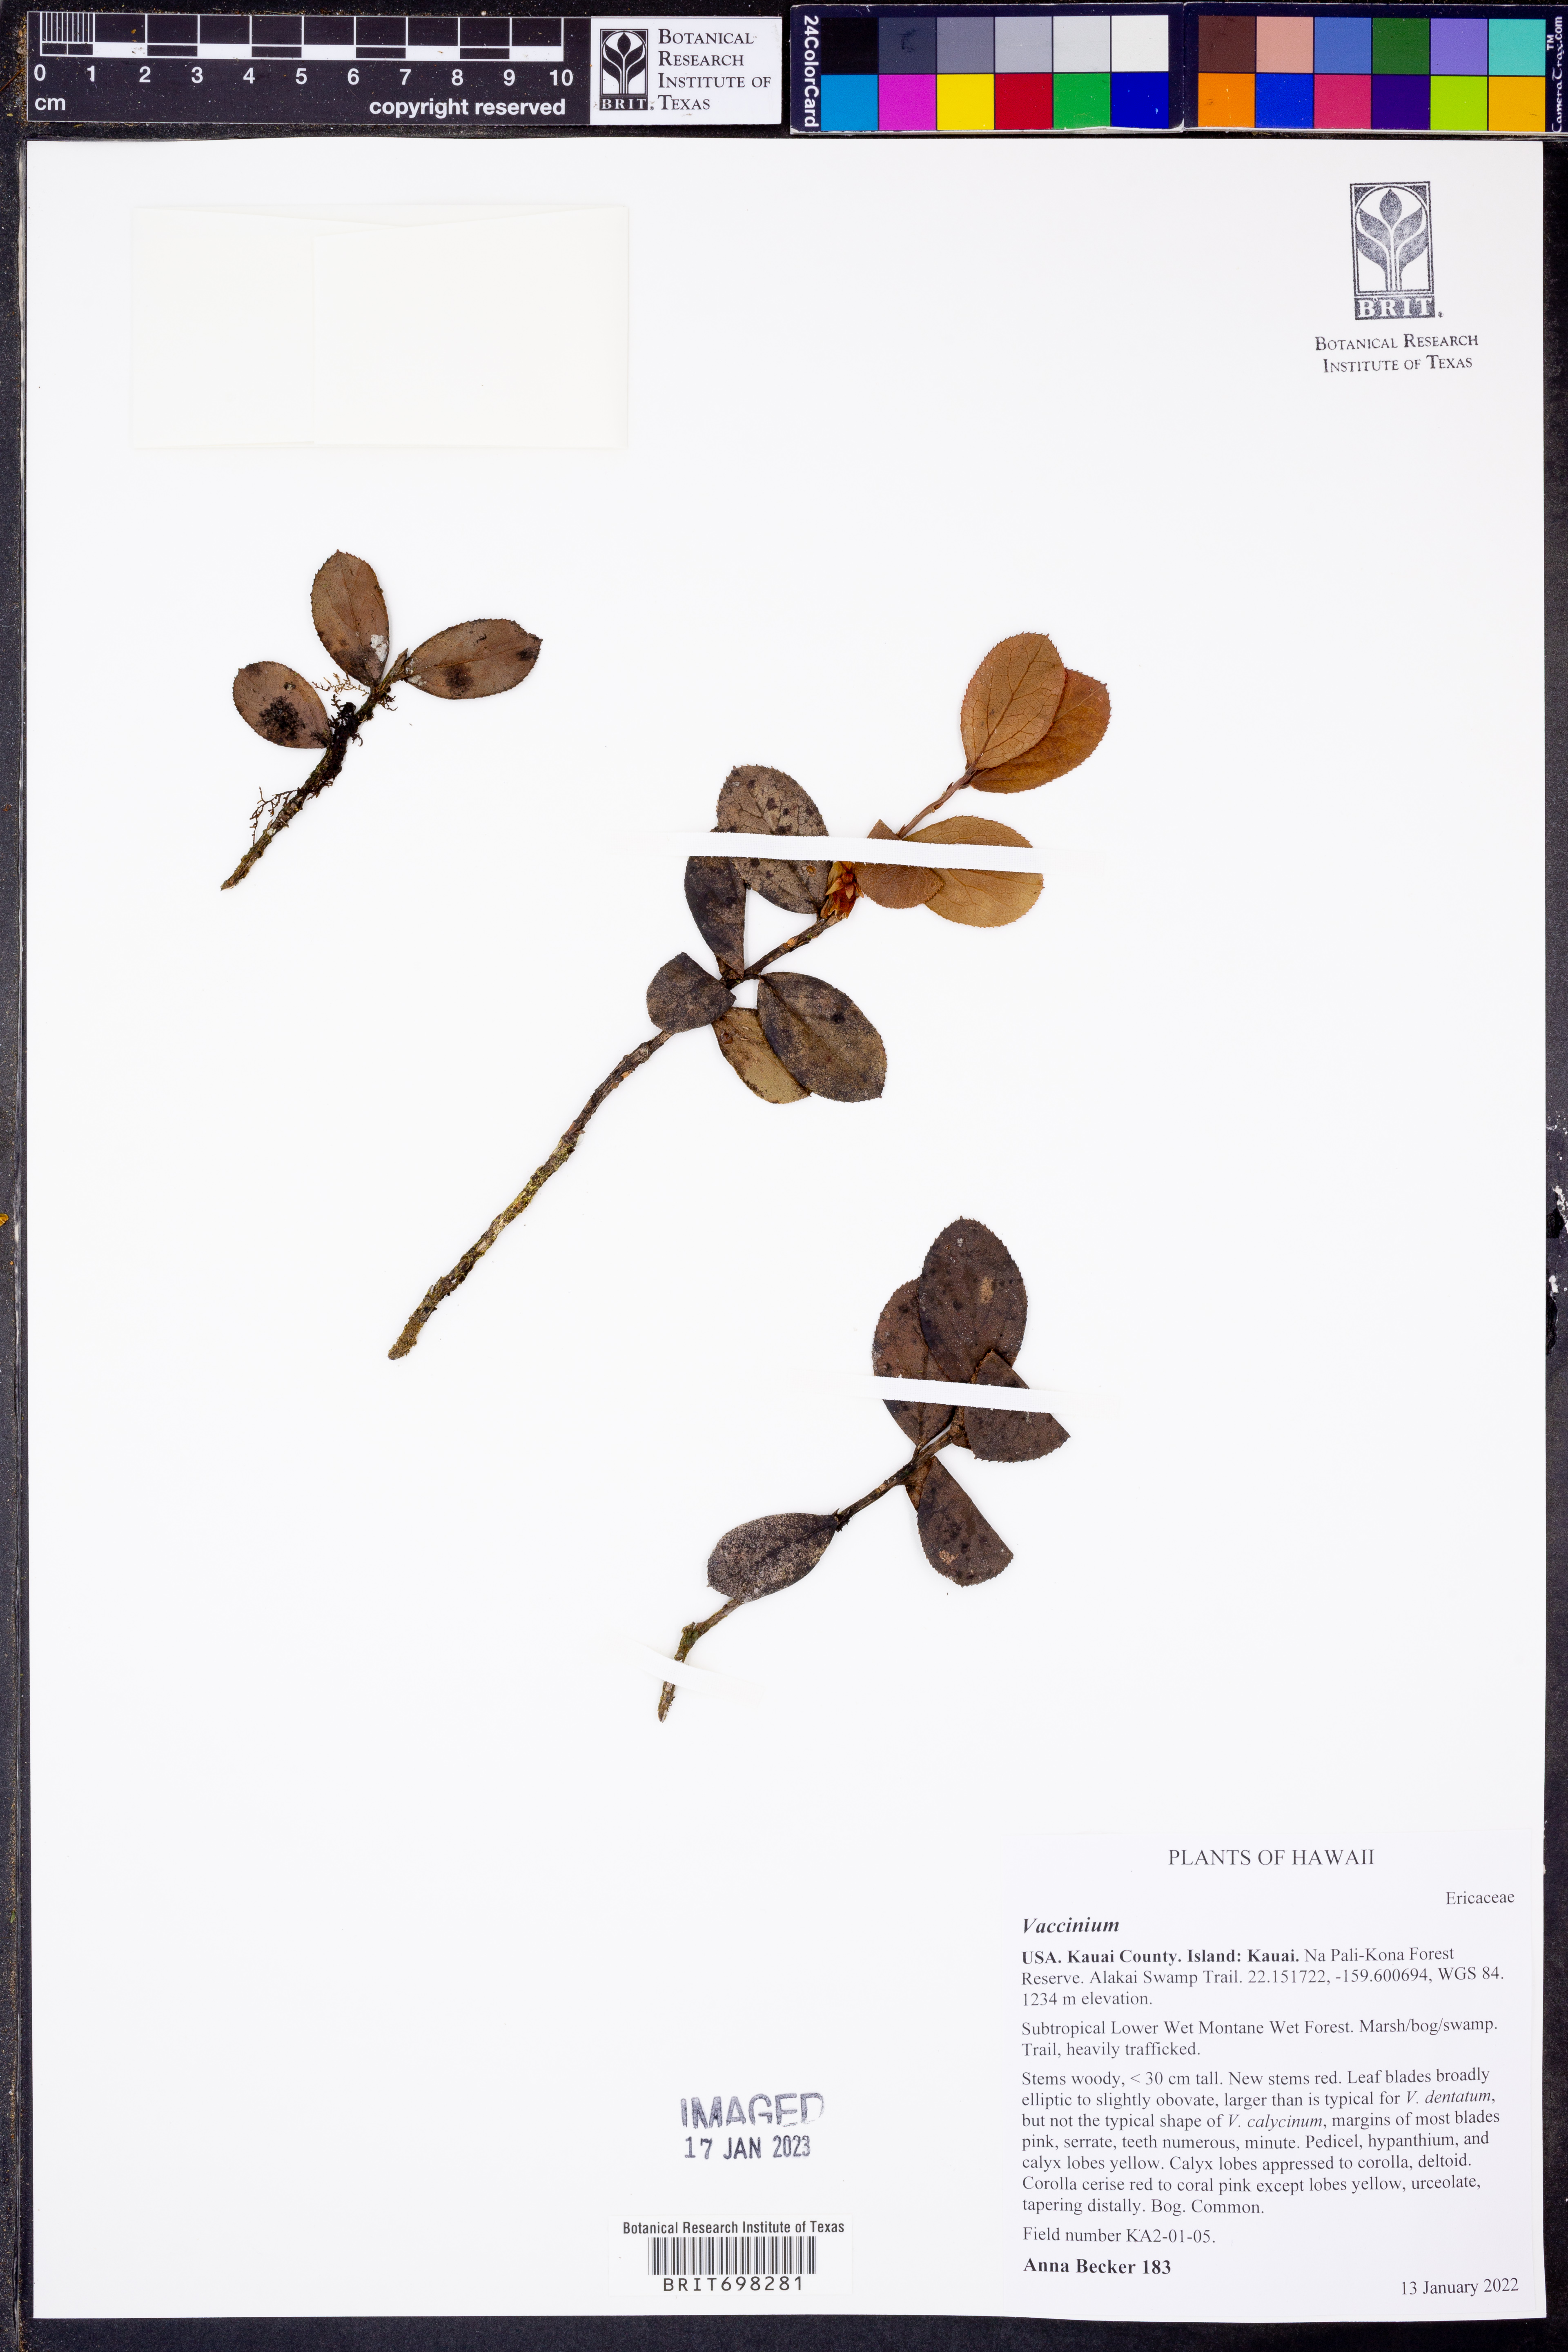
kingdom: Plantae
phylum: Tracheophyta
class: Magnoliopsida
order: Ericales
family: Ericaceae
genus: Vaccinium
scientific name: Vaccinium
